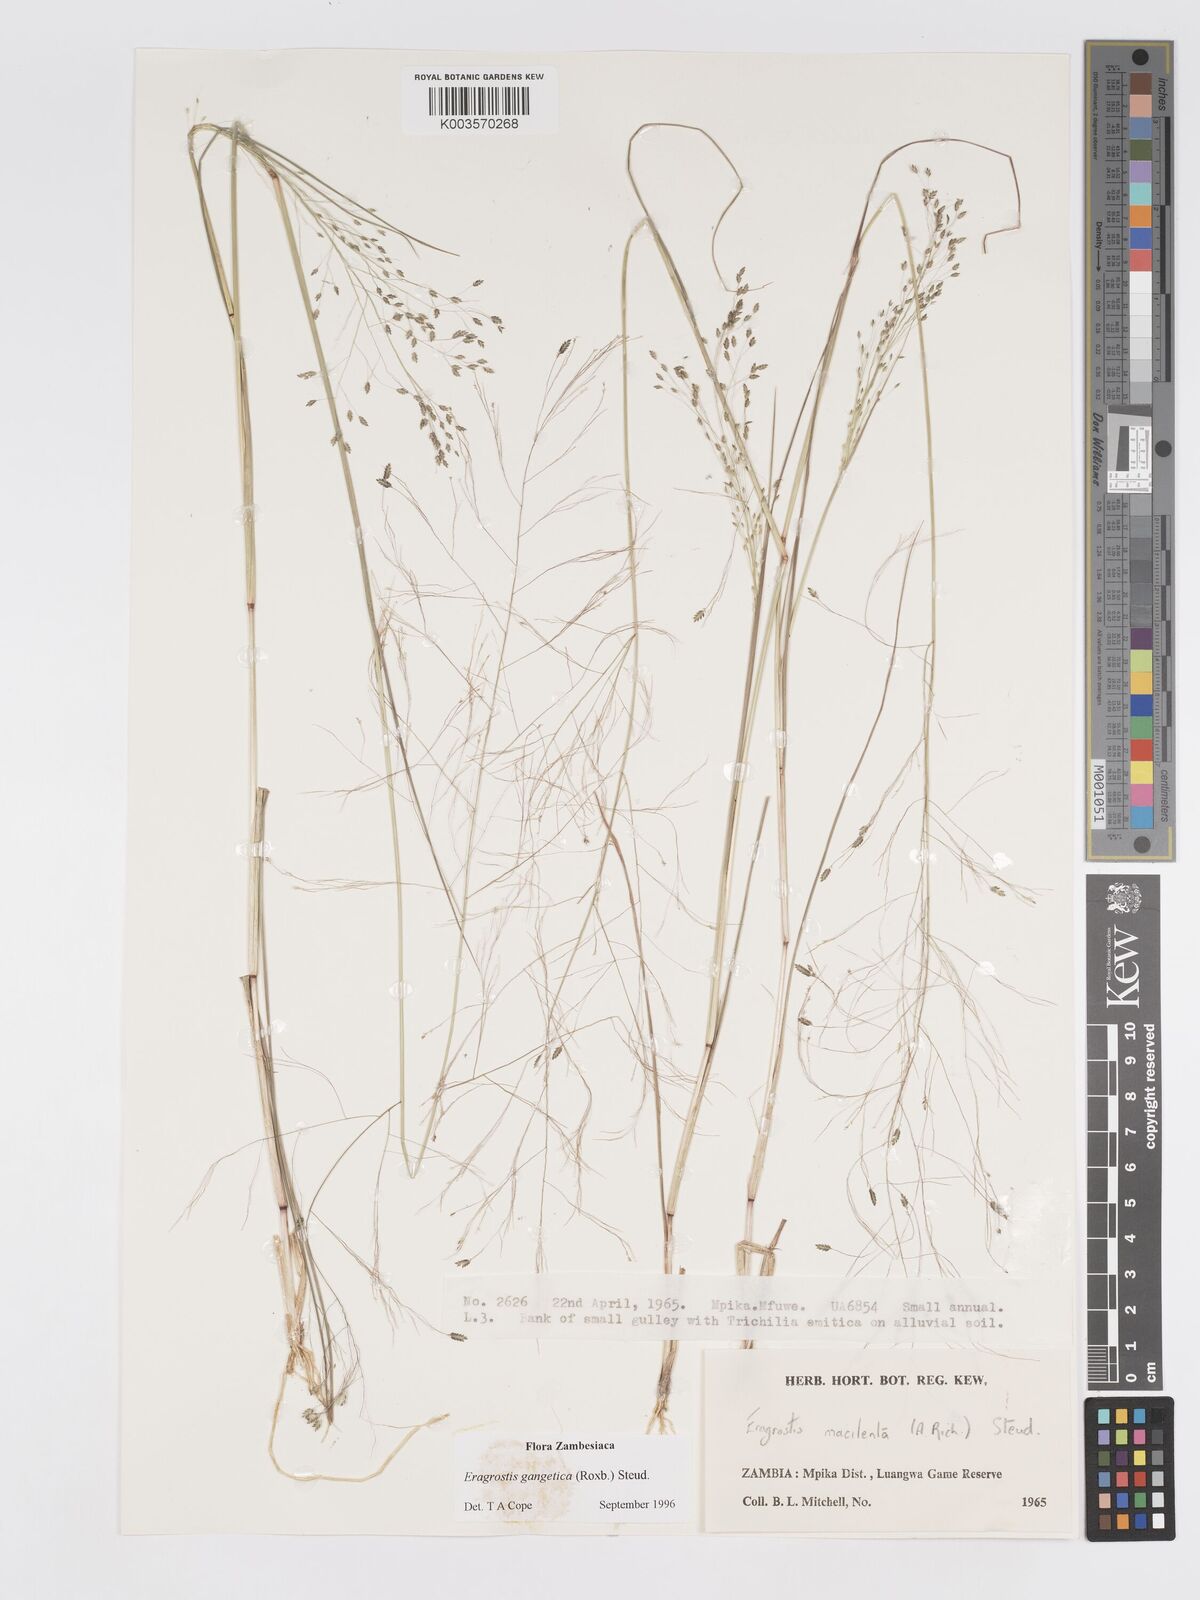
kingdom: Plantae
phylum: Tracheophyta
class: Liliopsida
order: Poales
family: Poaceae
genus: Eragrostis
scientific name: Eragrostis gangetica
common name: Slimflower lovegrass
